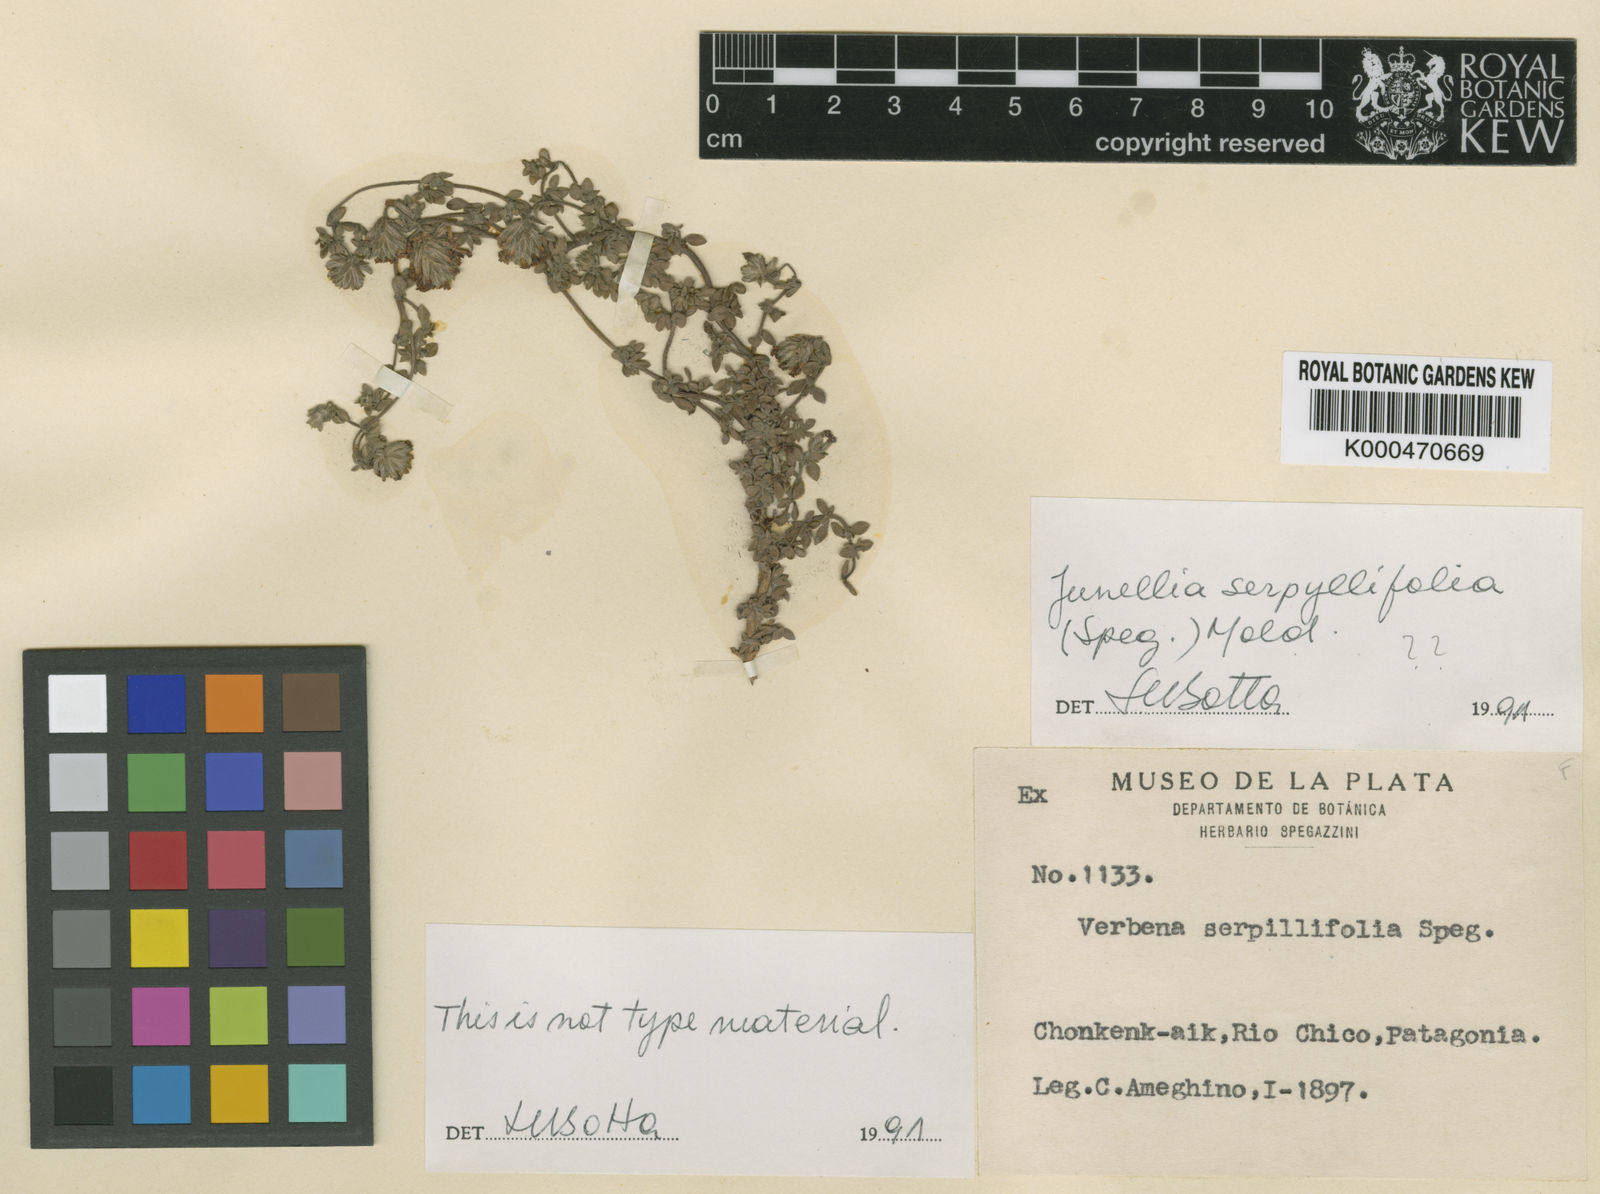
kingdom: Plantae
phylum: Tracheophyta
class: Magnoliopsida
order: Lamiales
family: Verbenaceae
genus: Junellia
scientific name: Junellia micrantha
